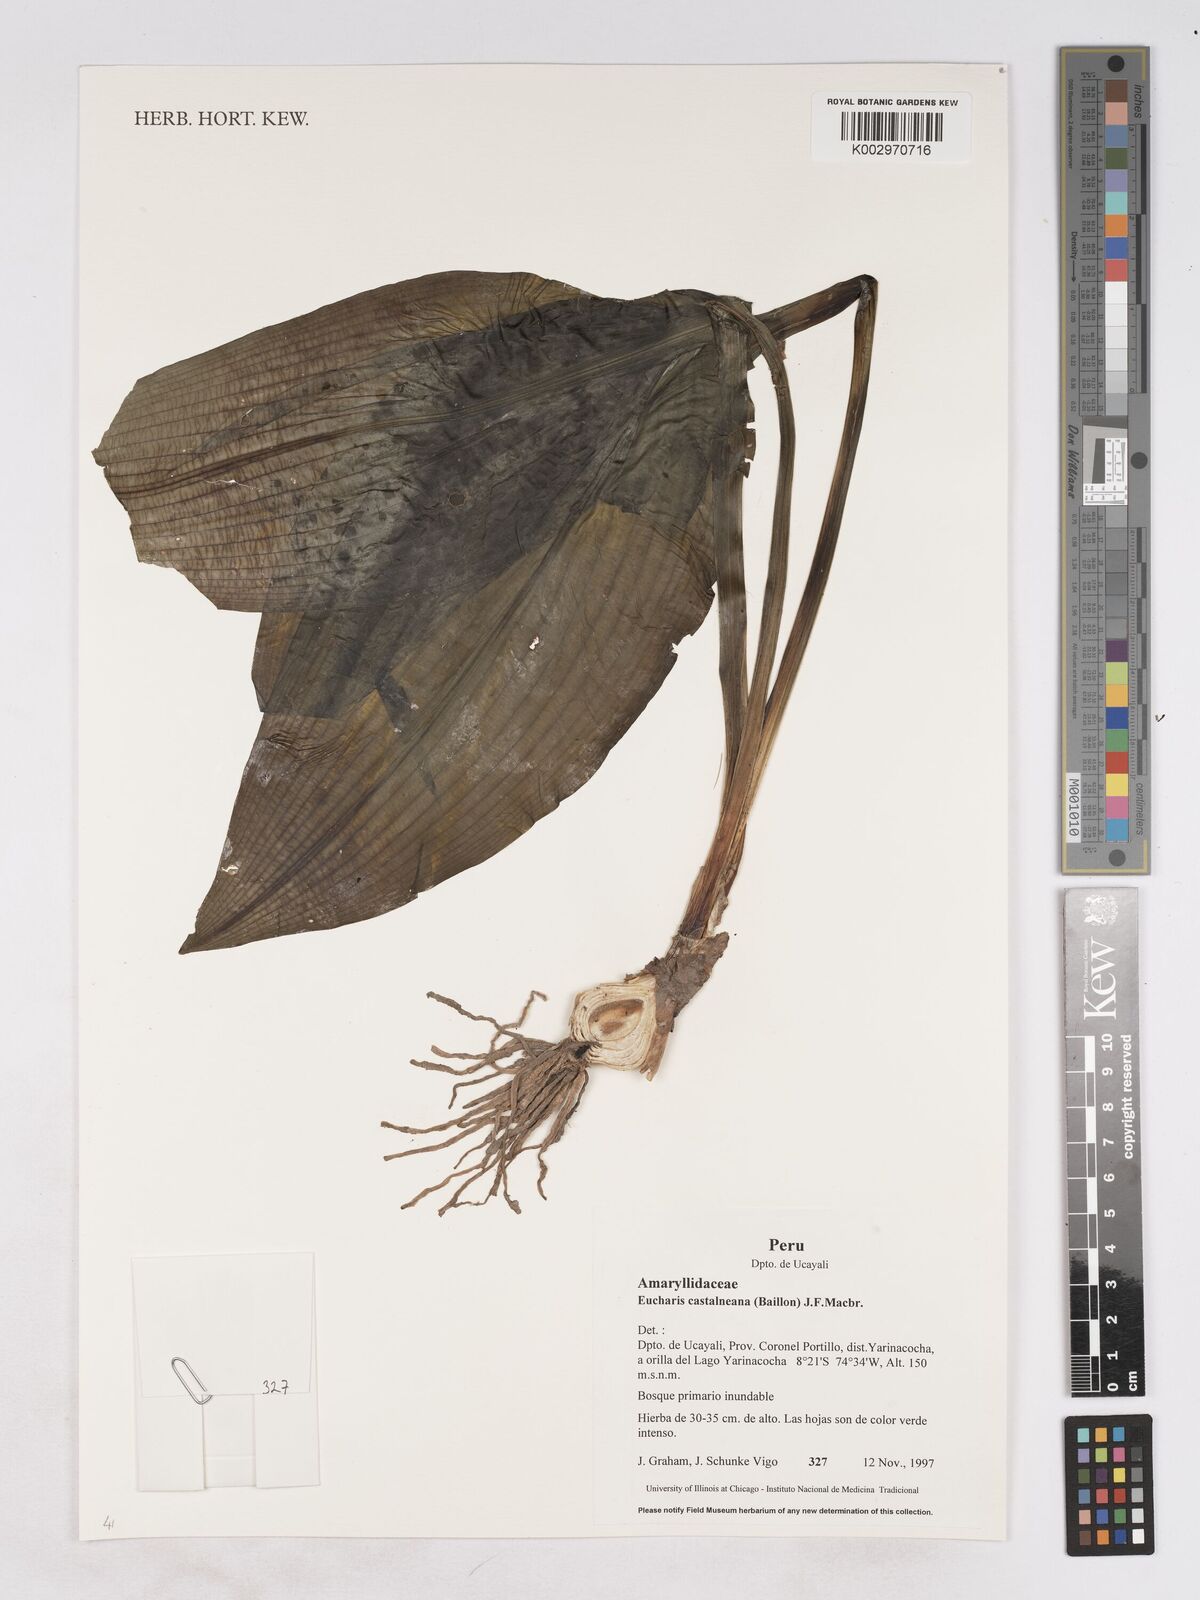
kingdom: Plantae
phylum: Tracheophyta
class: Liliopsida
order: Asparagales
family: Amaryllidaceae
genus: Urceolina
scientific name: Urceolina castelnaeana
